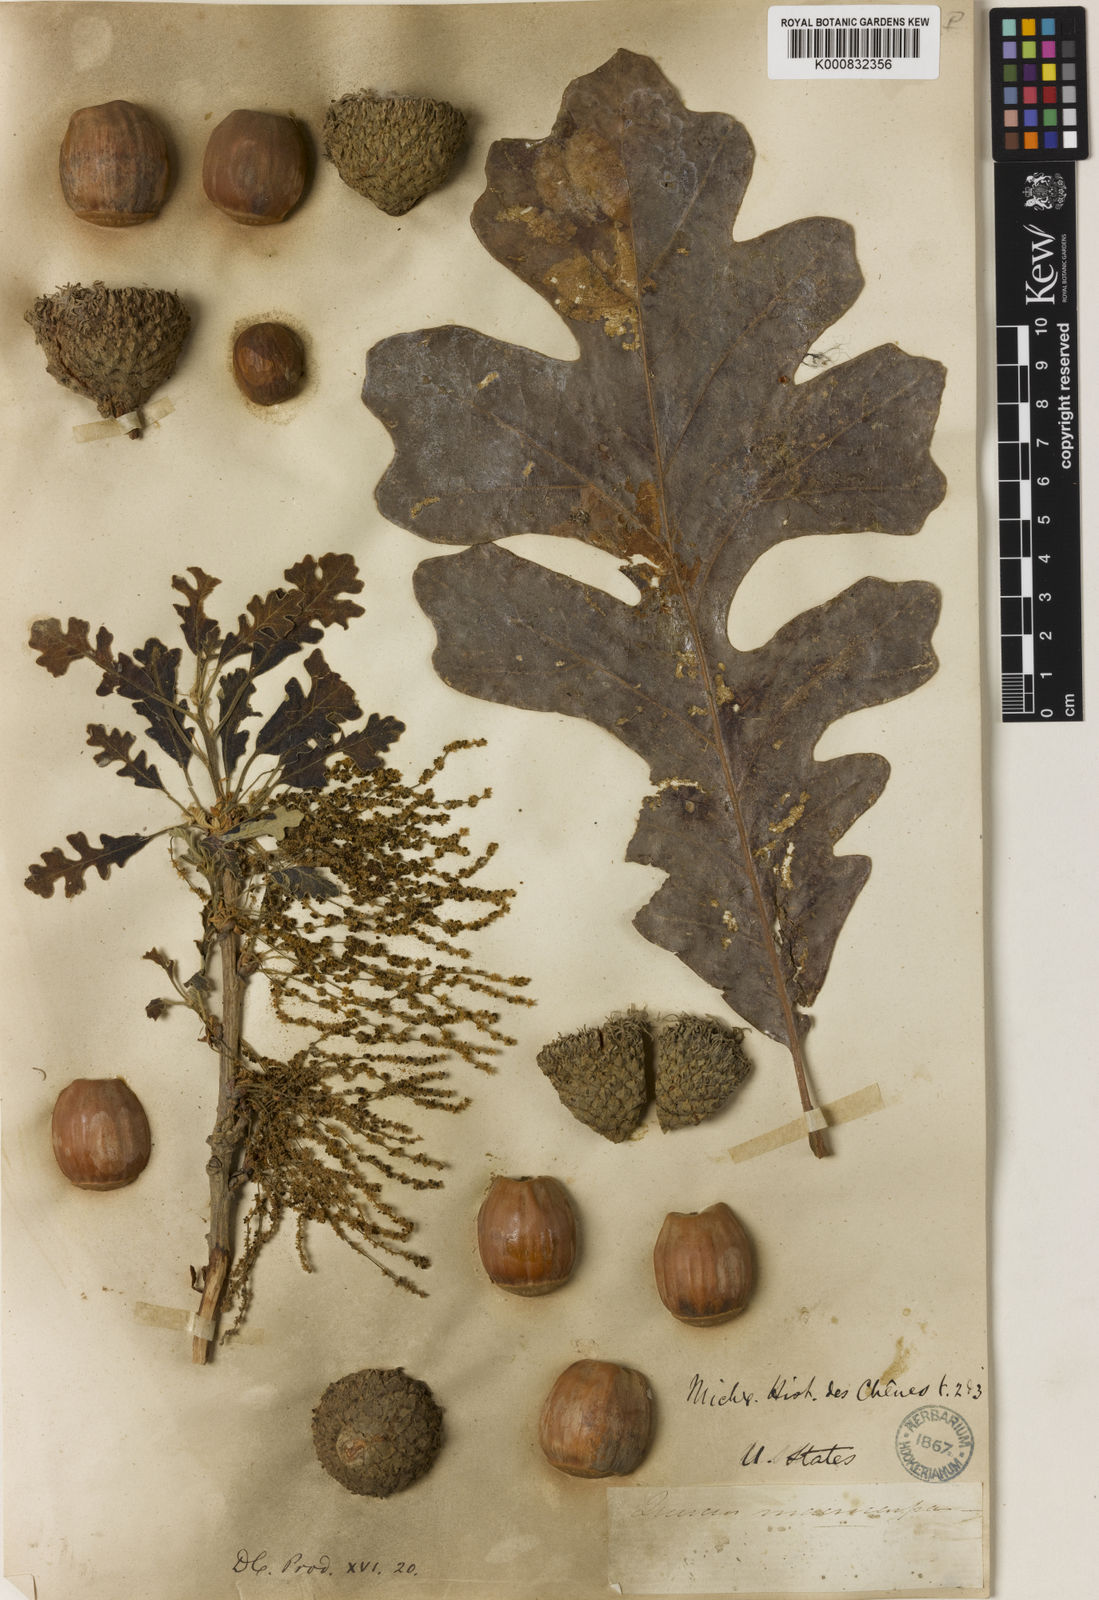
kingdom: Plantae
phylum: Tracheophyta
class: Magnoliopsida
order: Fagales
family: Fagaceae
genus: Quercus
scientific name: Quercus microphylla
